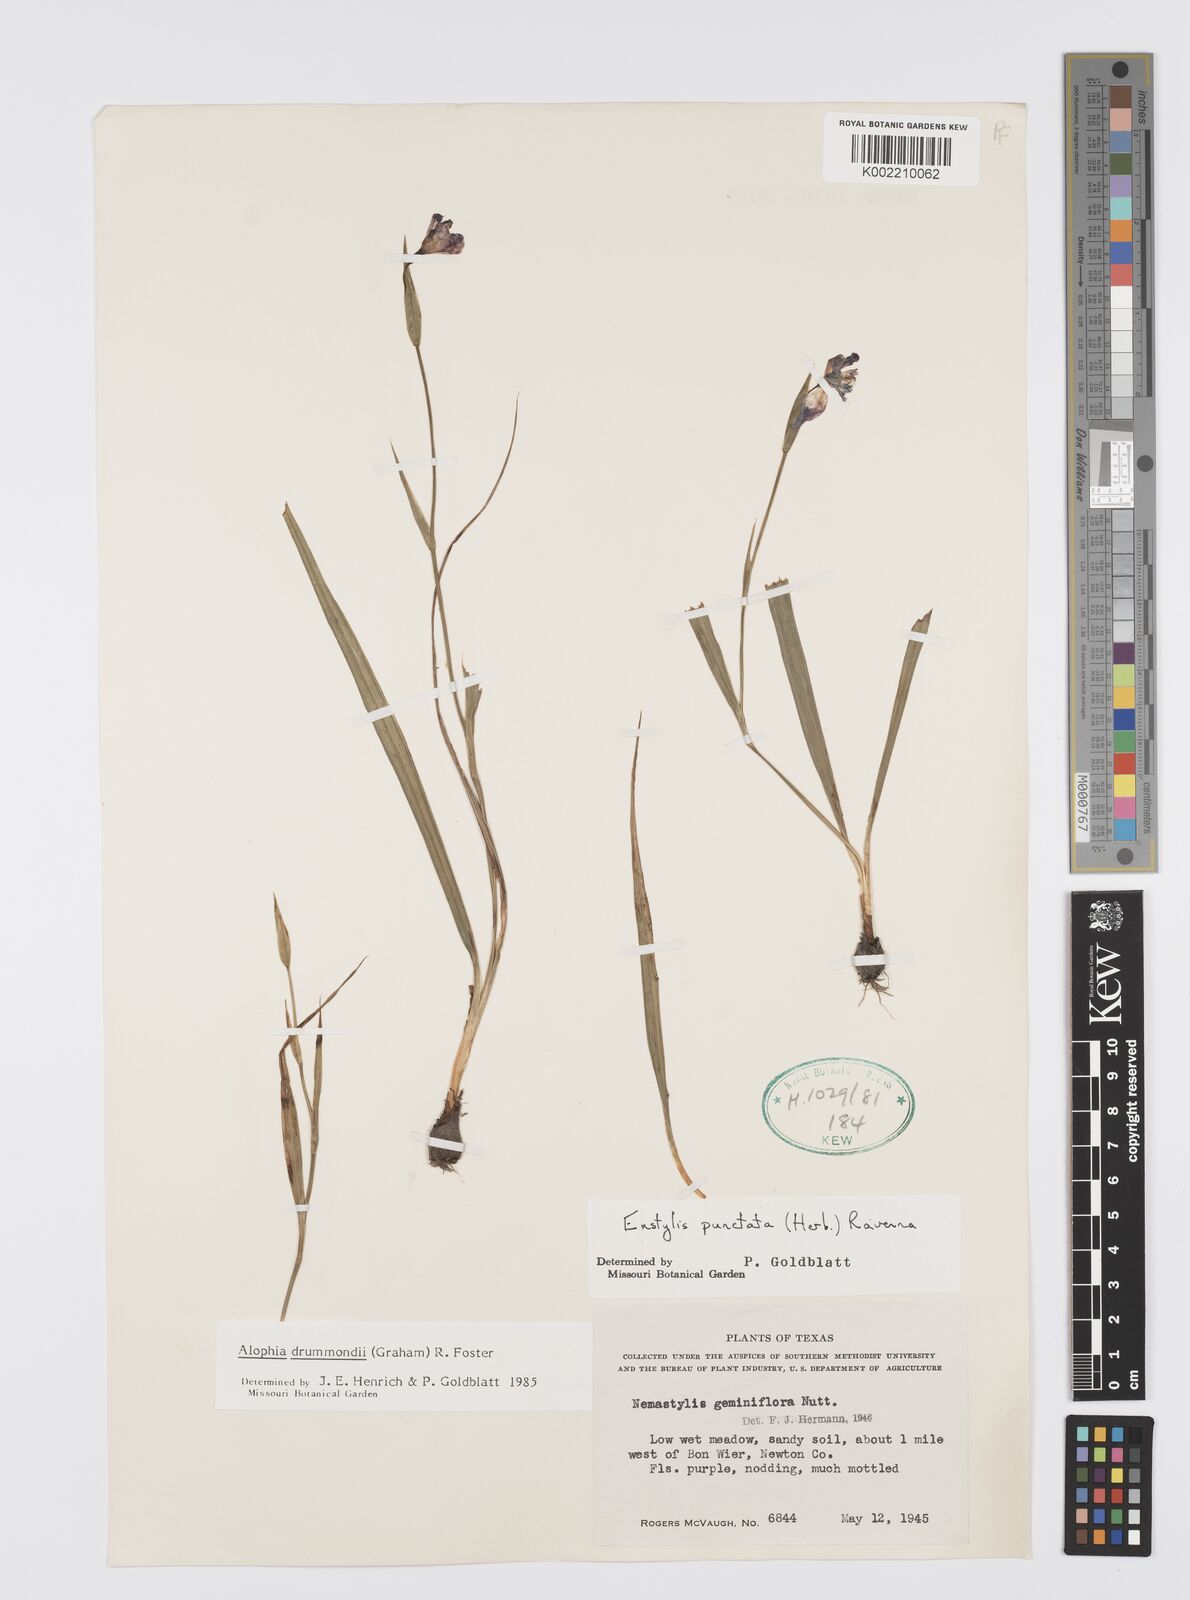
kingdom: Plantae
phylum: Tracheophyta
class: Liliopsida
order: Asparagales
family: Iridaceae
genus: Alophia
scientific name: Alophia drummondii
